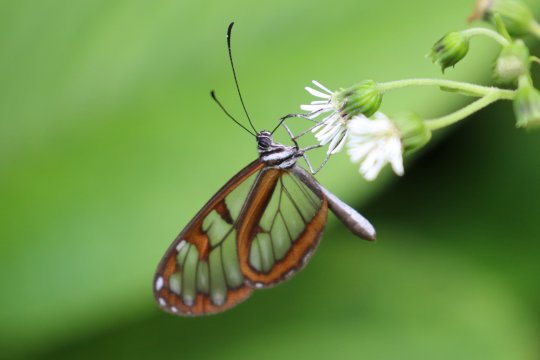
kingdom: Animalia
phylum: Arthropoda
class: Insecta
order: Lepidoptera
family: Nymphalidae
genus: Oleria
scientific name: Oleria tremona
